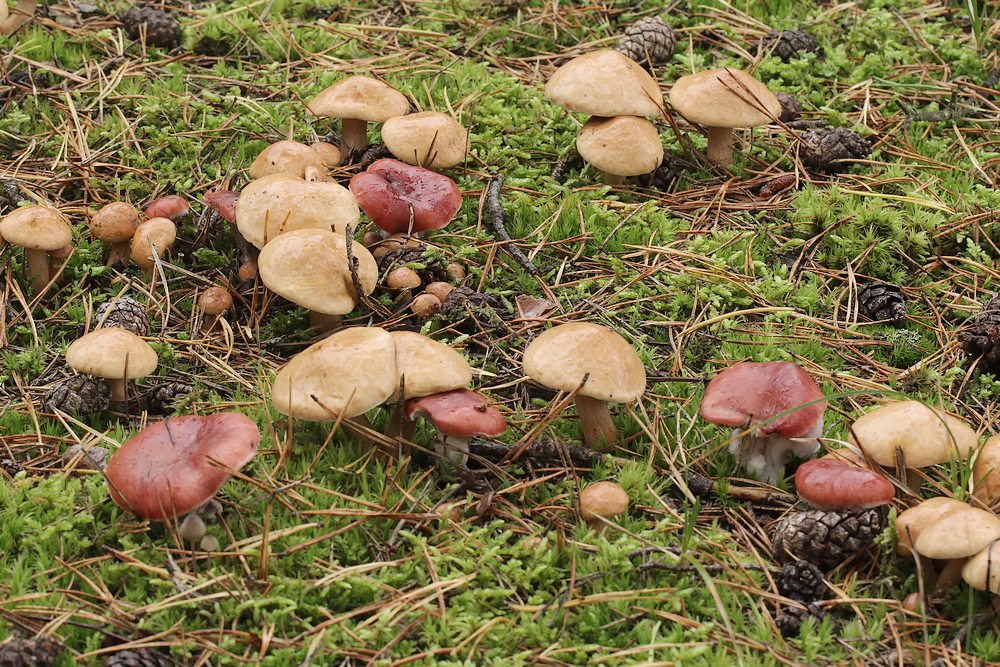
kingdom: Fungi
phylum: Basidiomycota
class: Agaricomycetes
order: Boletales
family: Gomphidiaceae
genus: Gomphidius
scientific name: Gomphidius roseus
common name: rosenrød slimslør
